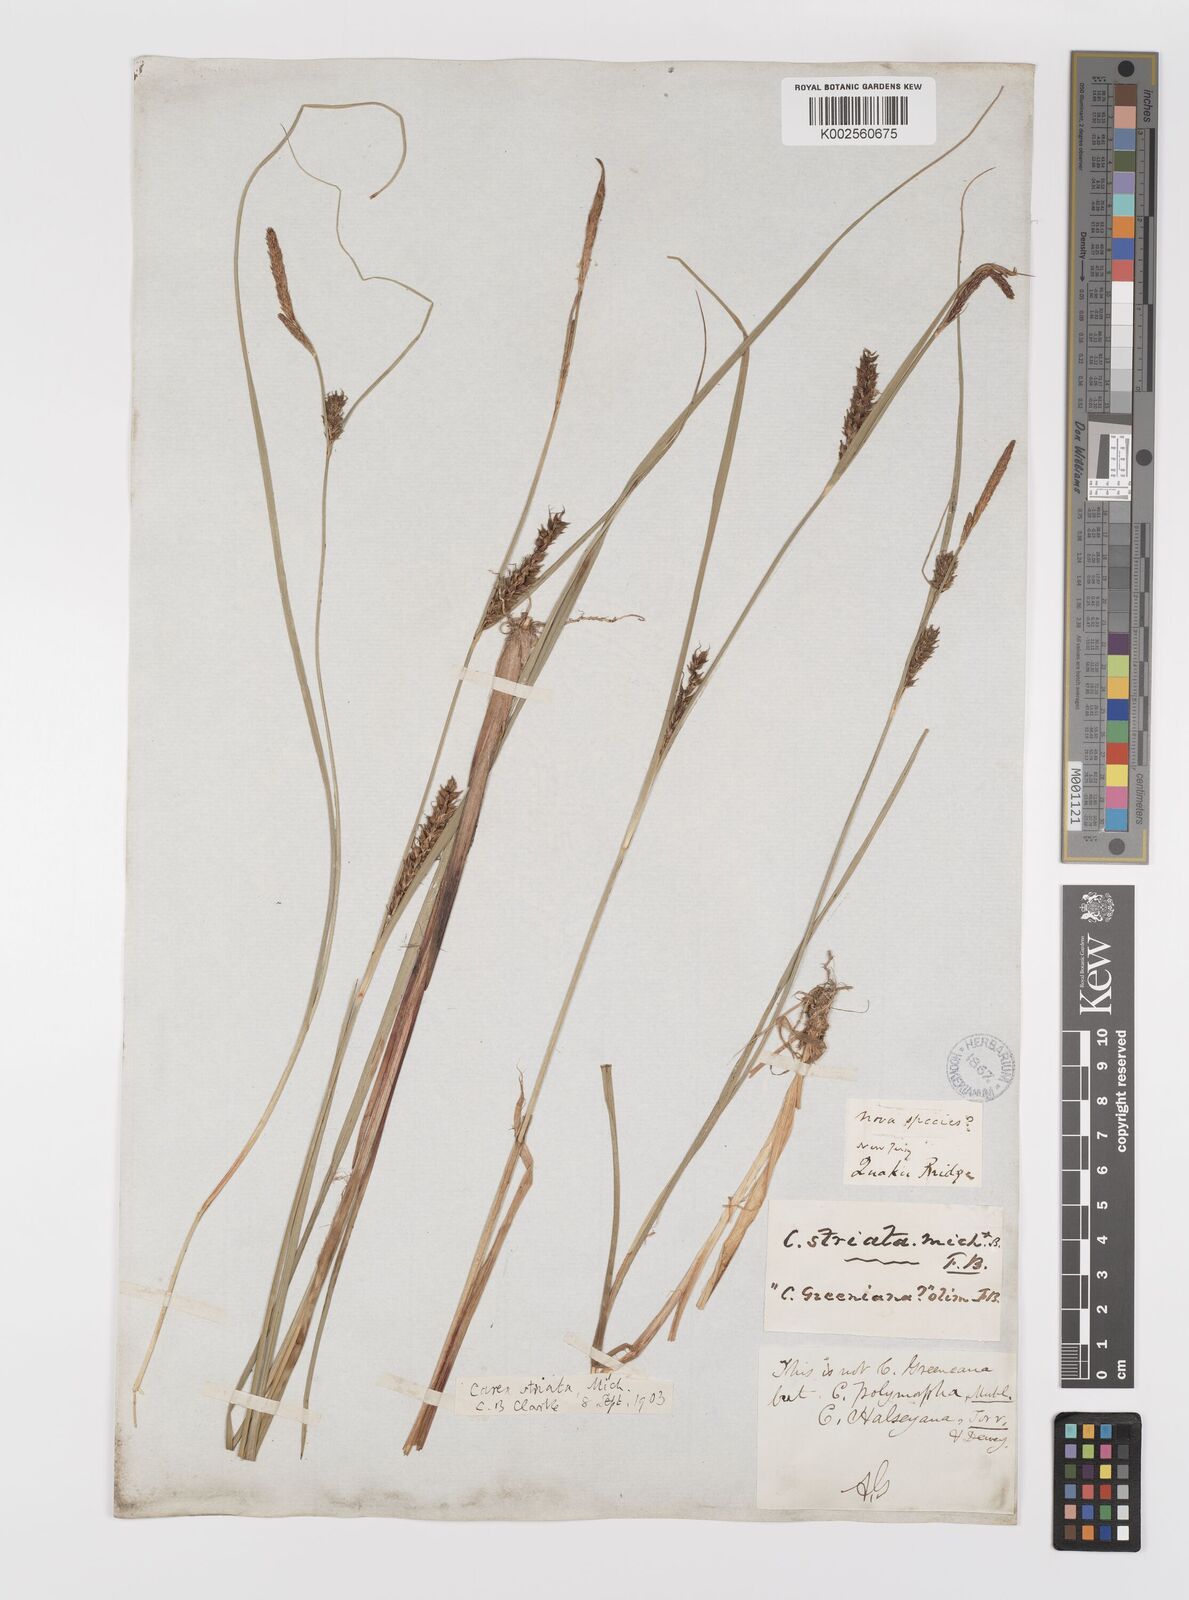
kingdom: Plantae
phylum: Tracheophyta
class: Liliopsida
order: Poales
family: Cyperaceae
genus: Carex
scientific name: Carex striata
